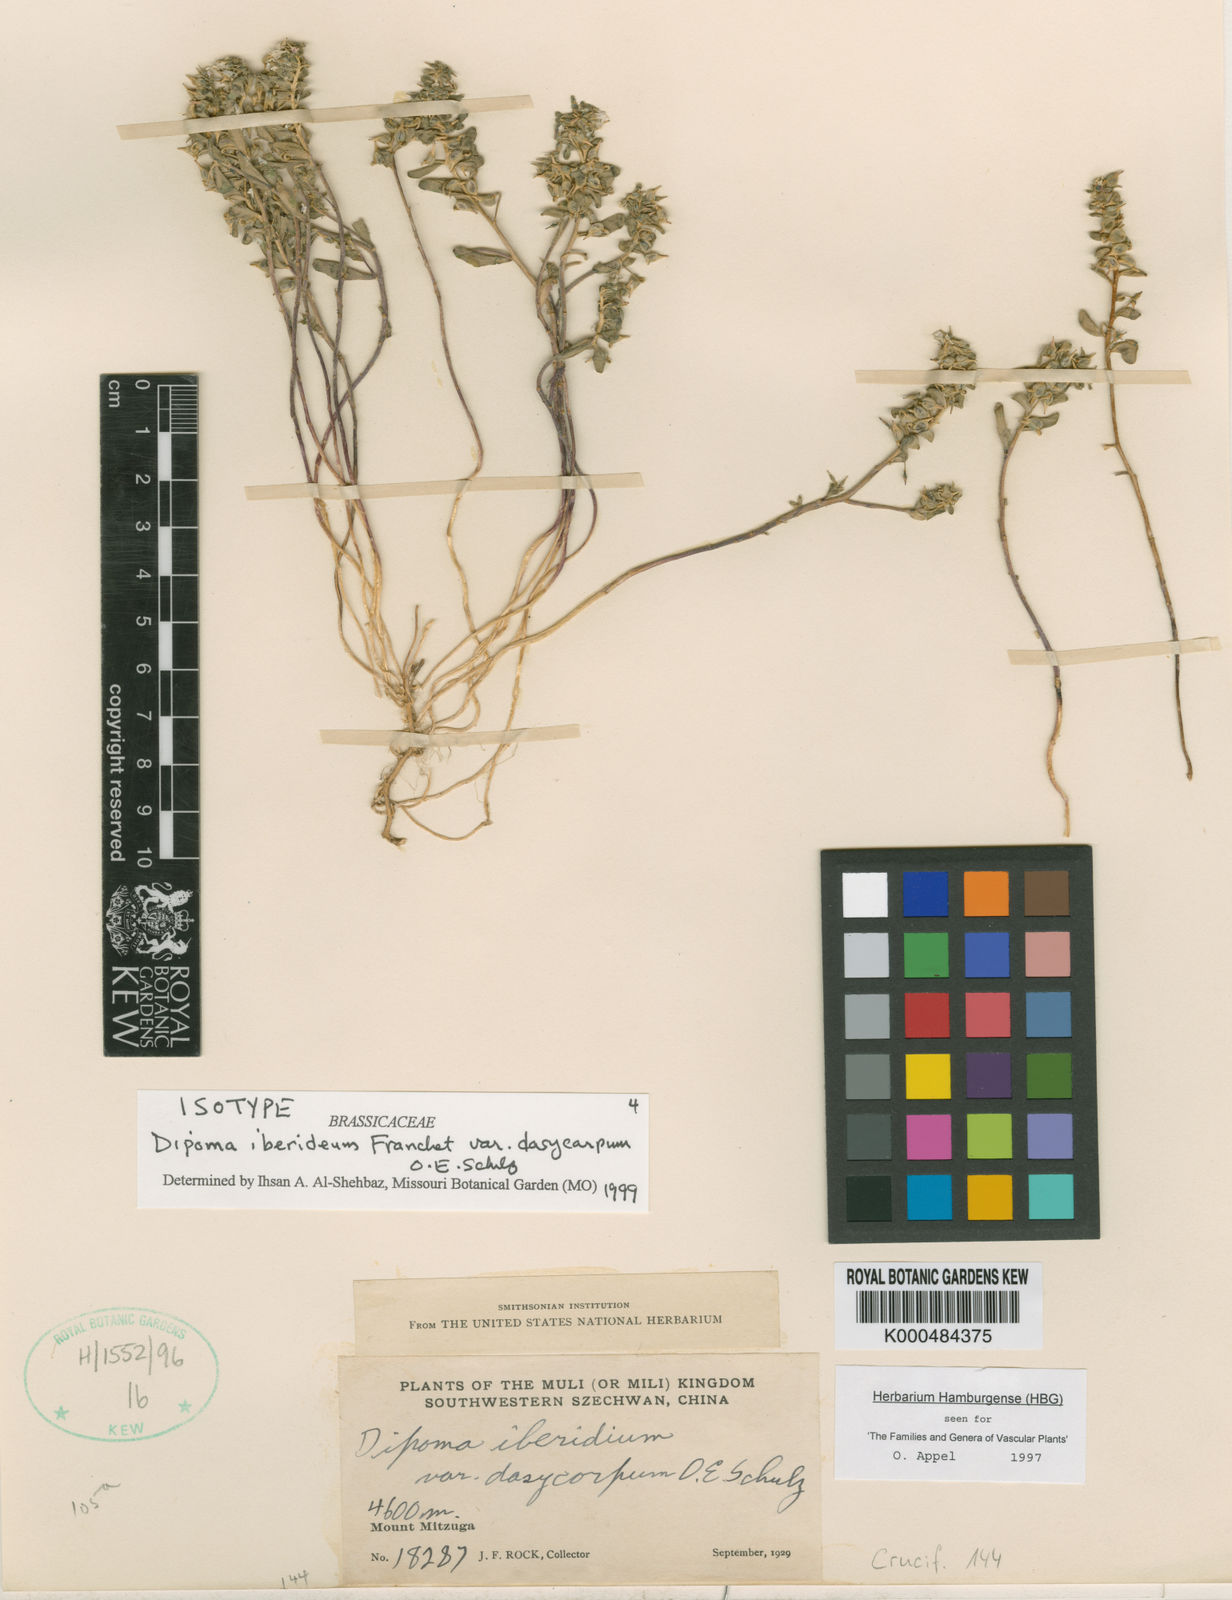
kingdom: Plantae
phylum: Tracheophyta
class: Magnoliopsida
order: Brassicales
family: Brassicaceae
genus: Dipoma
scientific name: Dipoma iberideum
